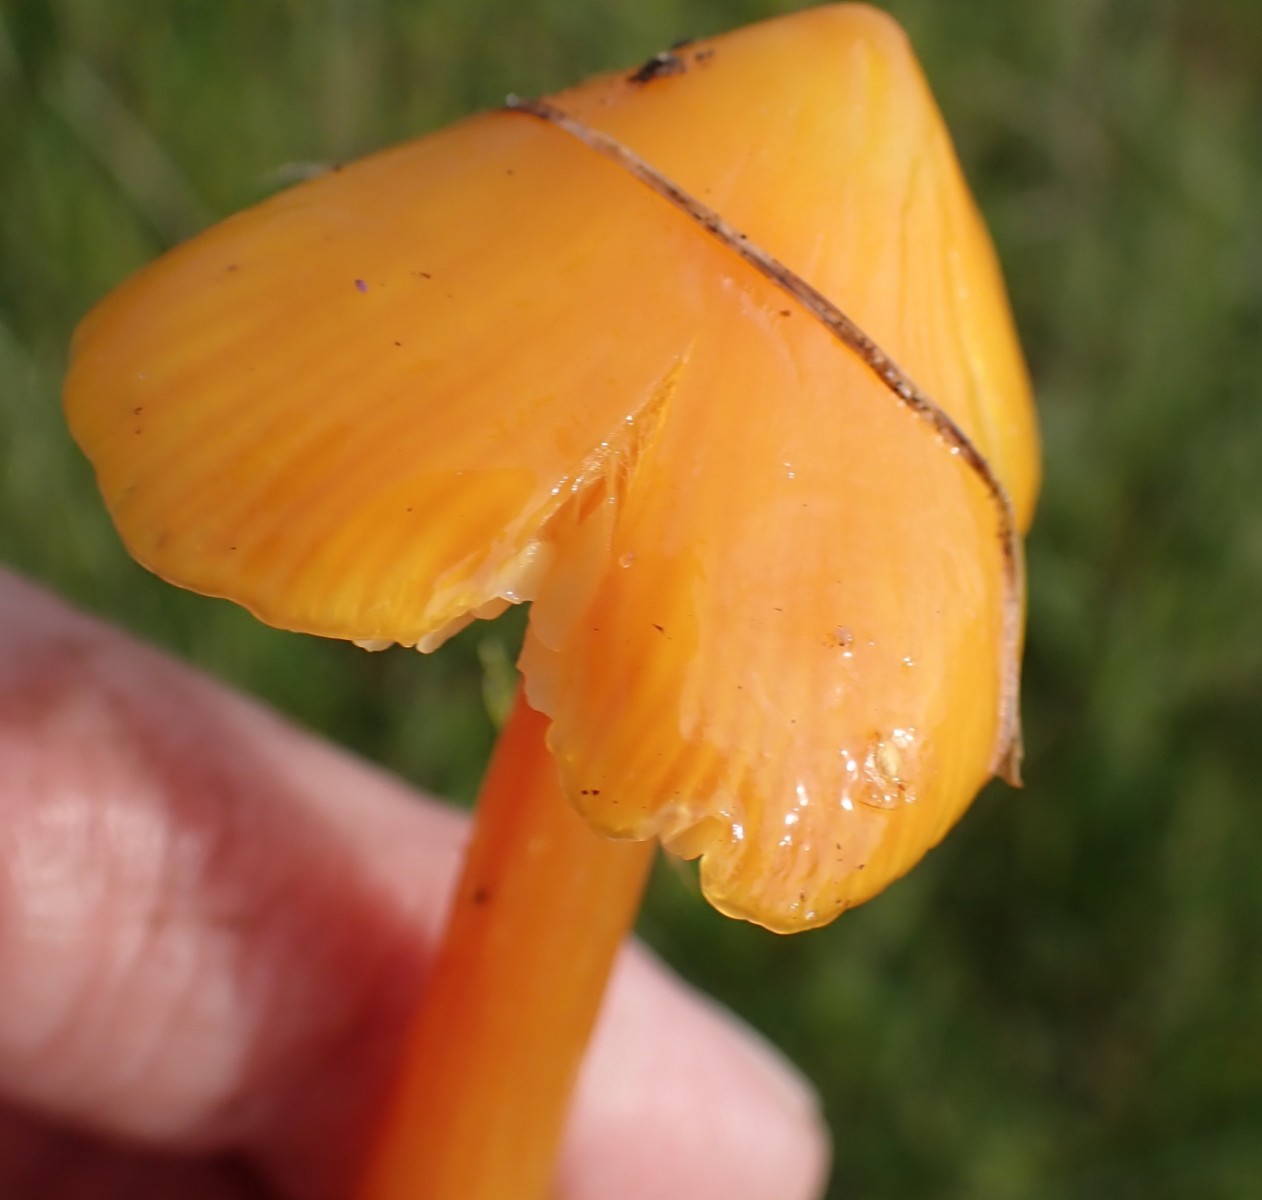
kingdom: Fungi
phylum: Basidiomycota
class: Agaricomycetes
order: Agaricales
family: Hygrophoraceae
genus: Hygrocybe
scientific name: Hygrocybe
